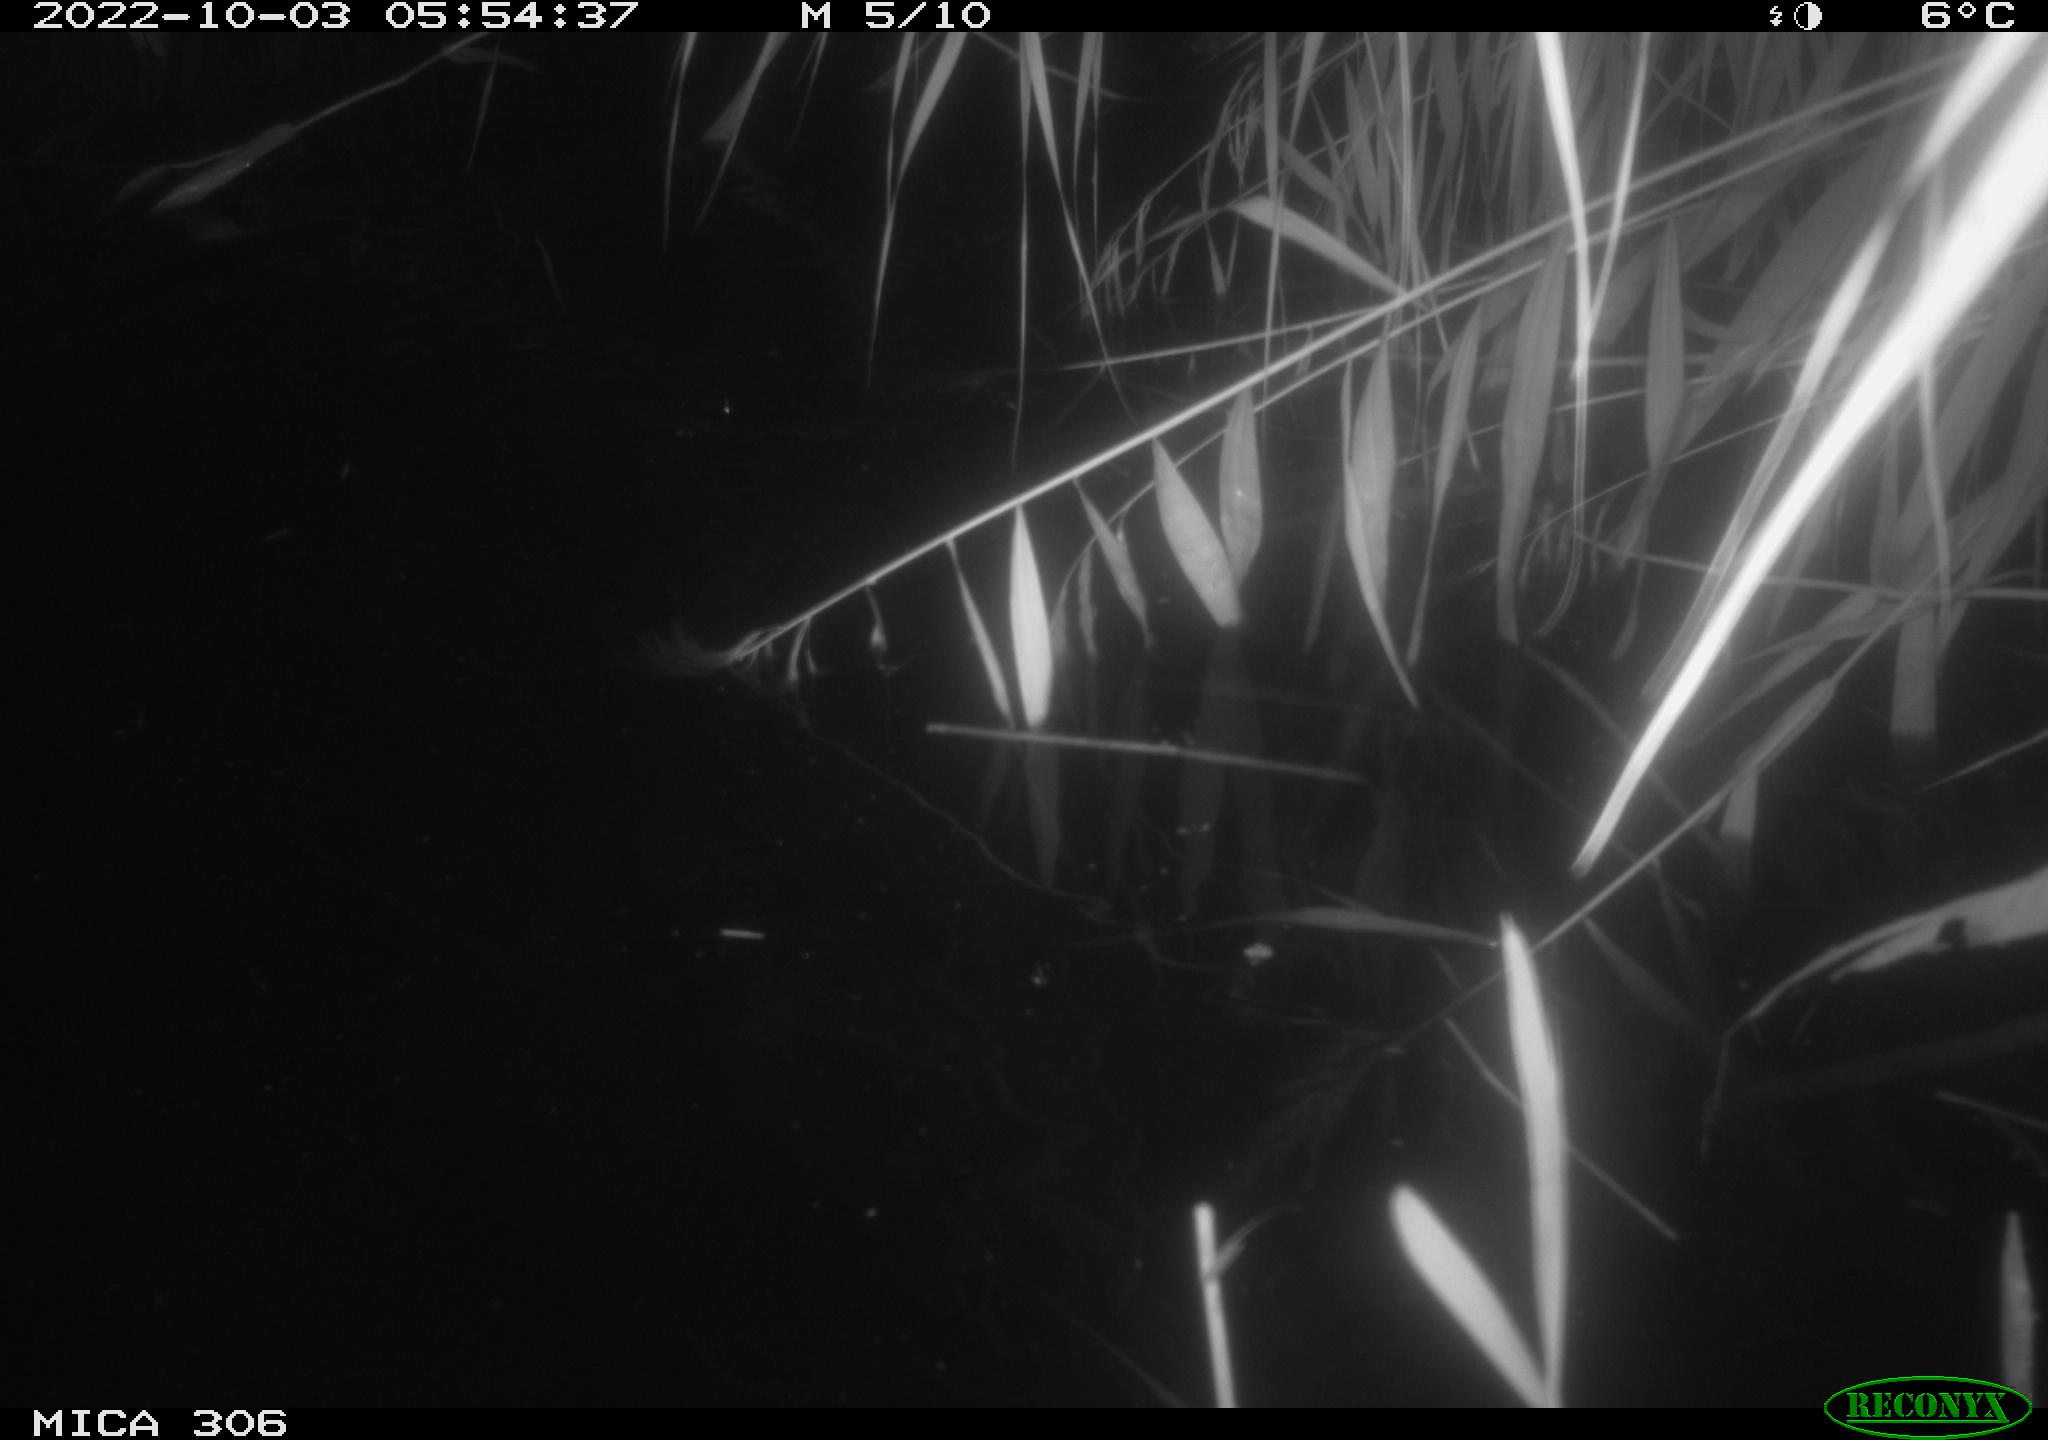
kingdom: Animalia
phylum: Chordata
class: Mammalia
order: Rodentia
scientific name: Rodentia
